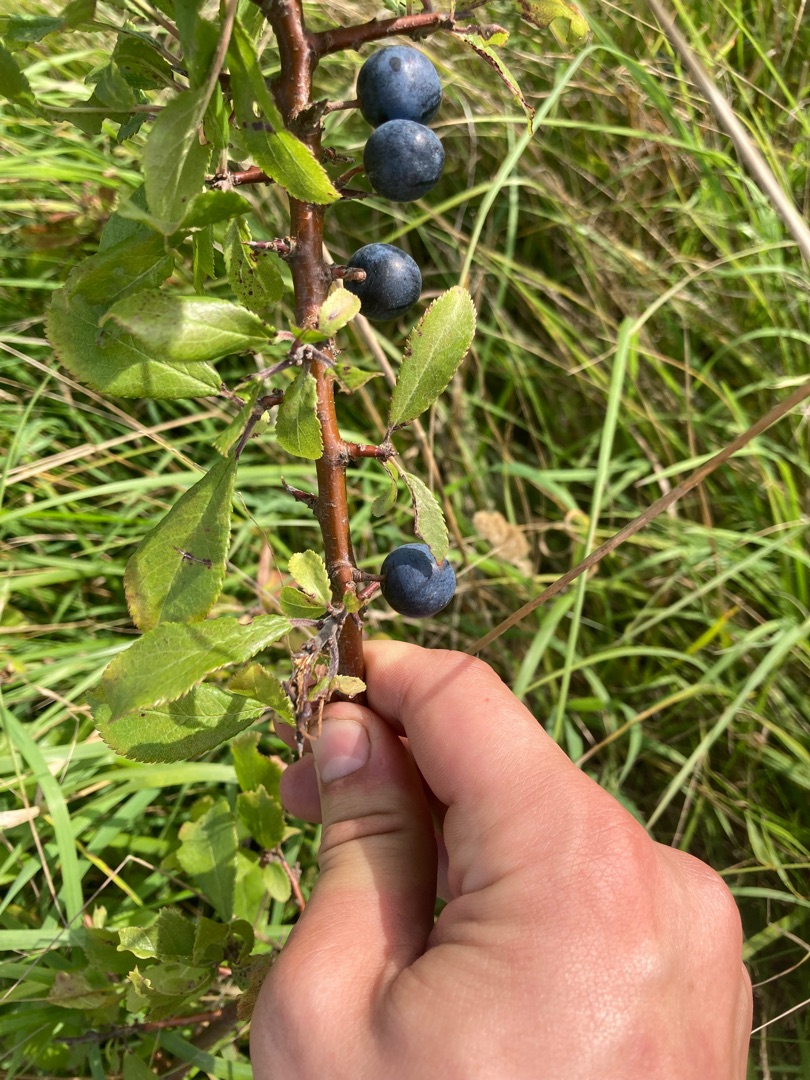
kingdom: Plantae
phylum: Tracheophyta
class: Magnoliopsida
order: Rosales
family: Rosaceae
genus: Prunus
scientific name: Prunus spinosa
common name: Slåen
